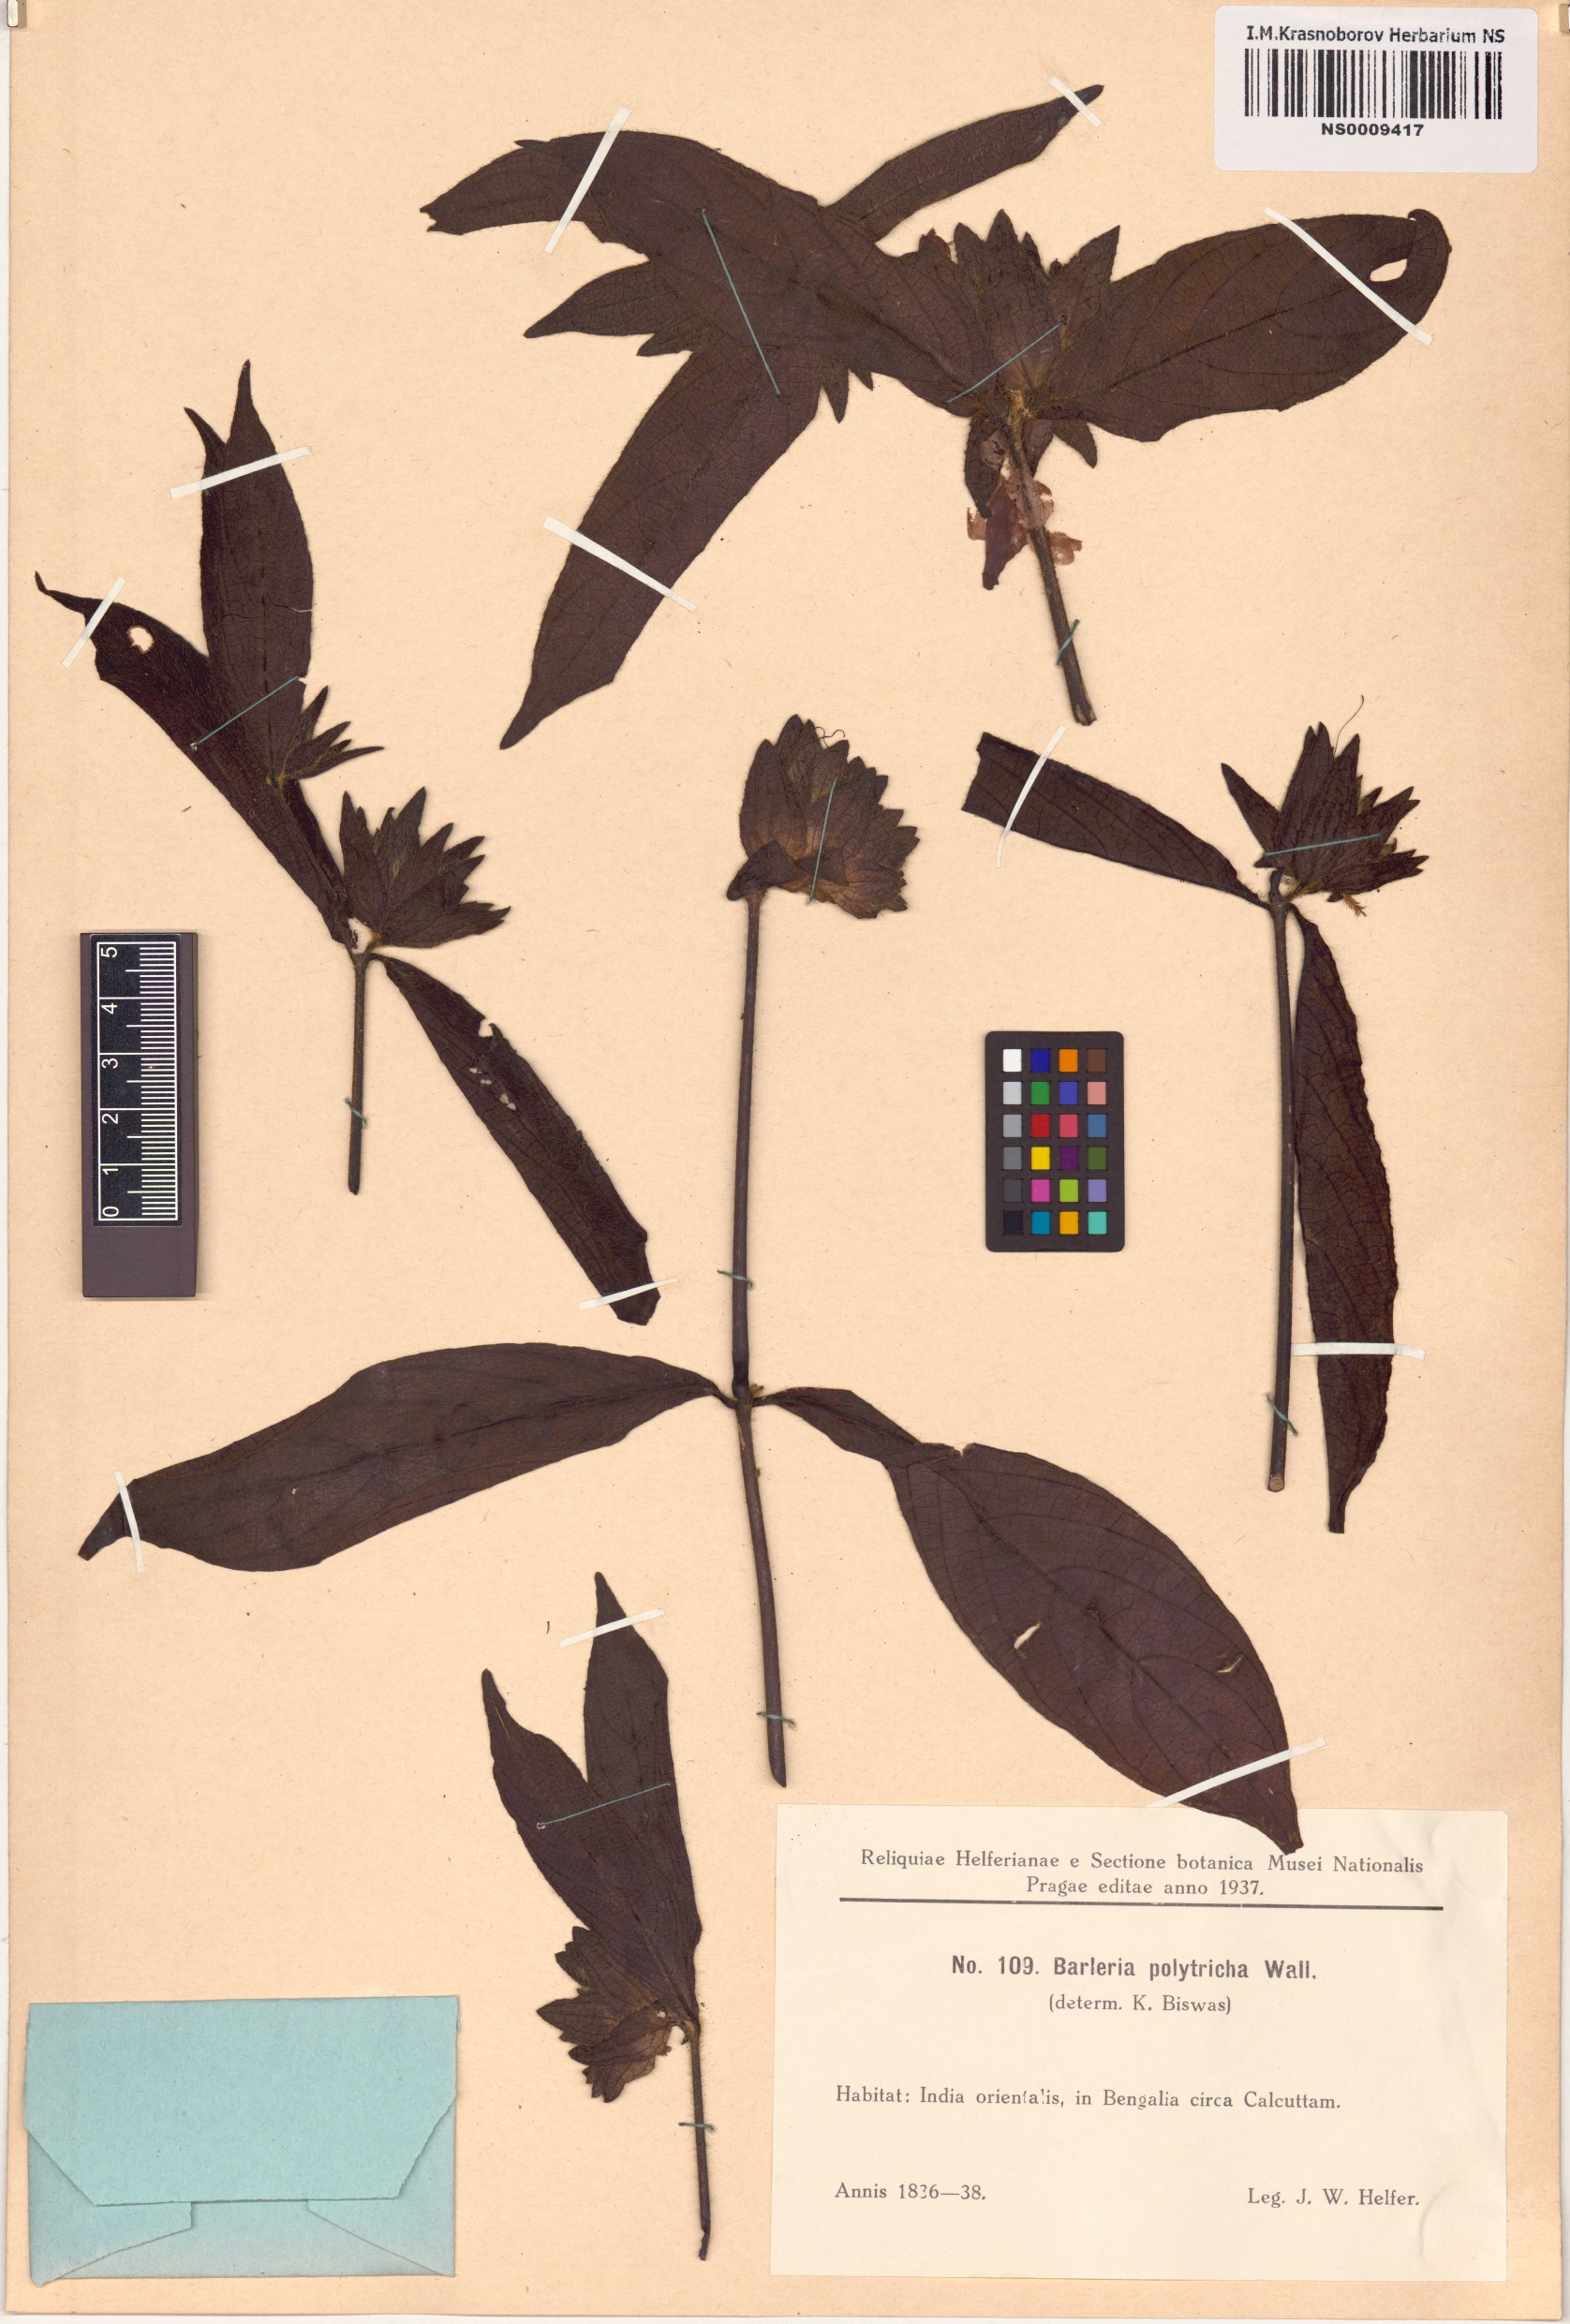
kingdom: Plantae
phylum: Tracheophyta
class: Magnoliopsida
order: Lamiales
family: Acanthaceae
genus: Barleria
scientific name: Barleria strigosa
